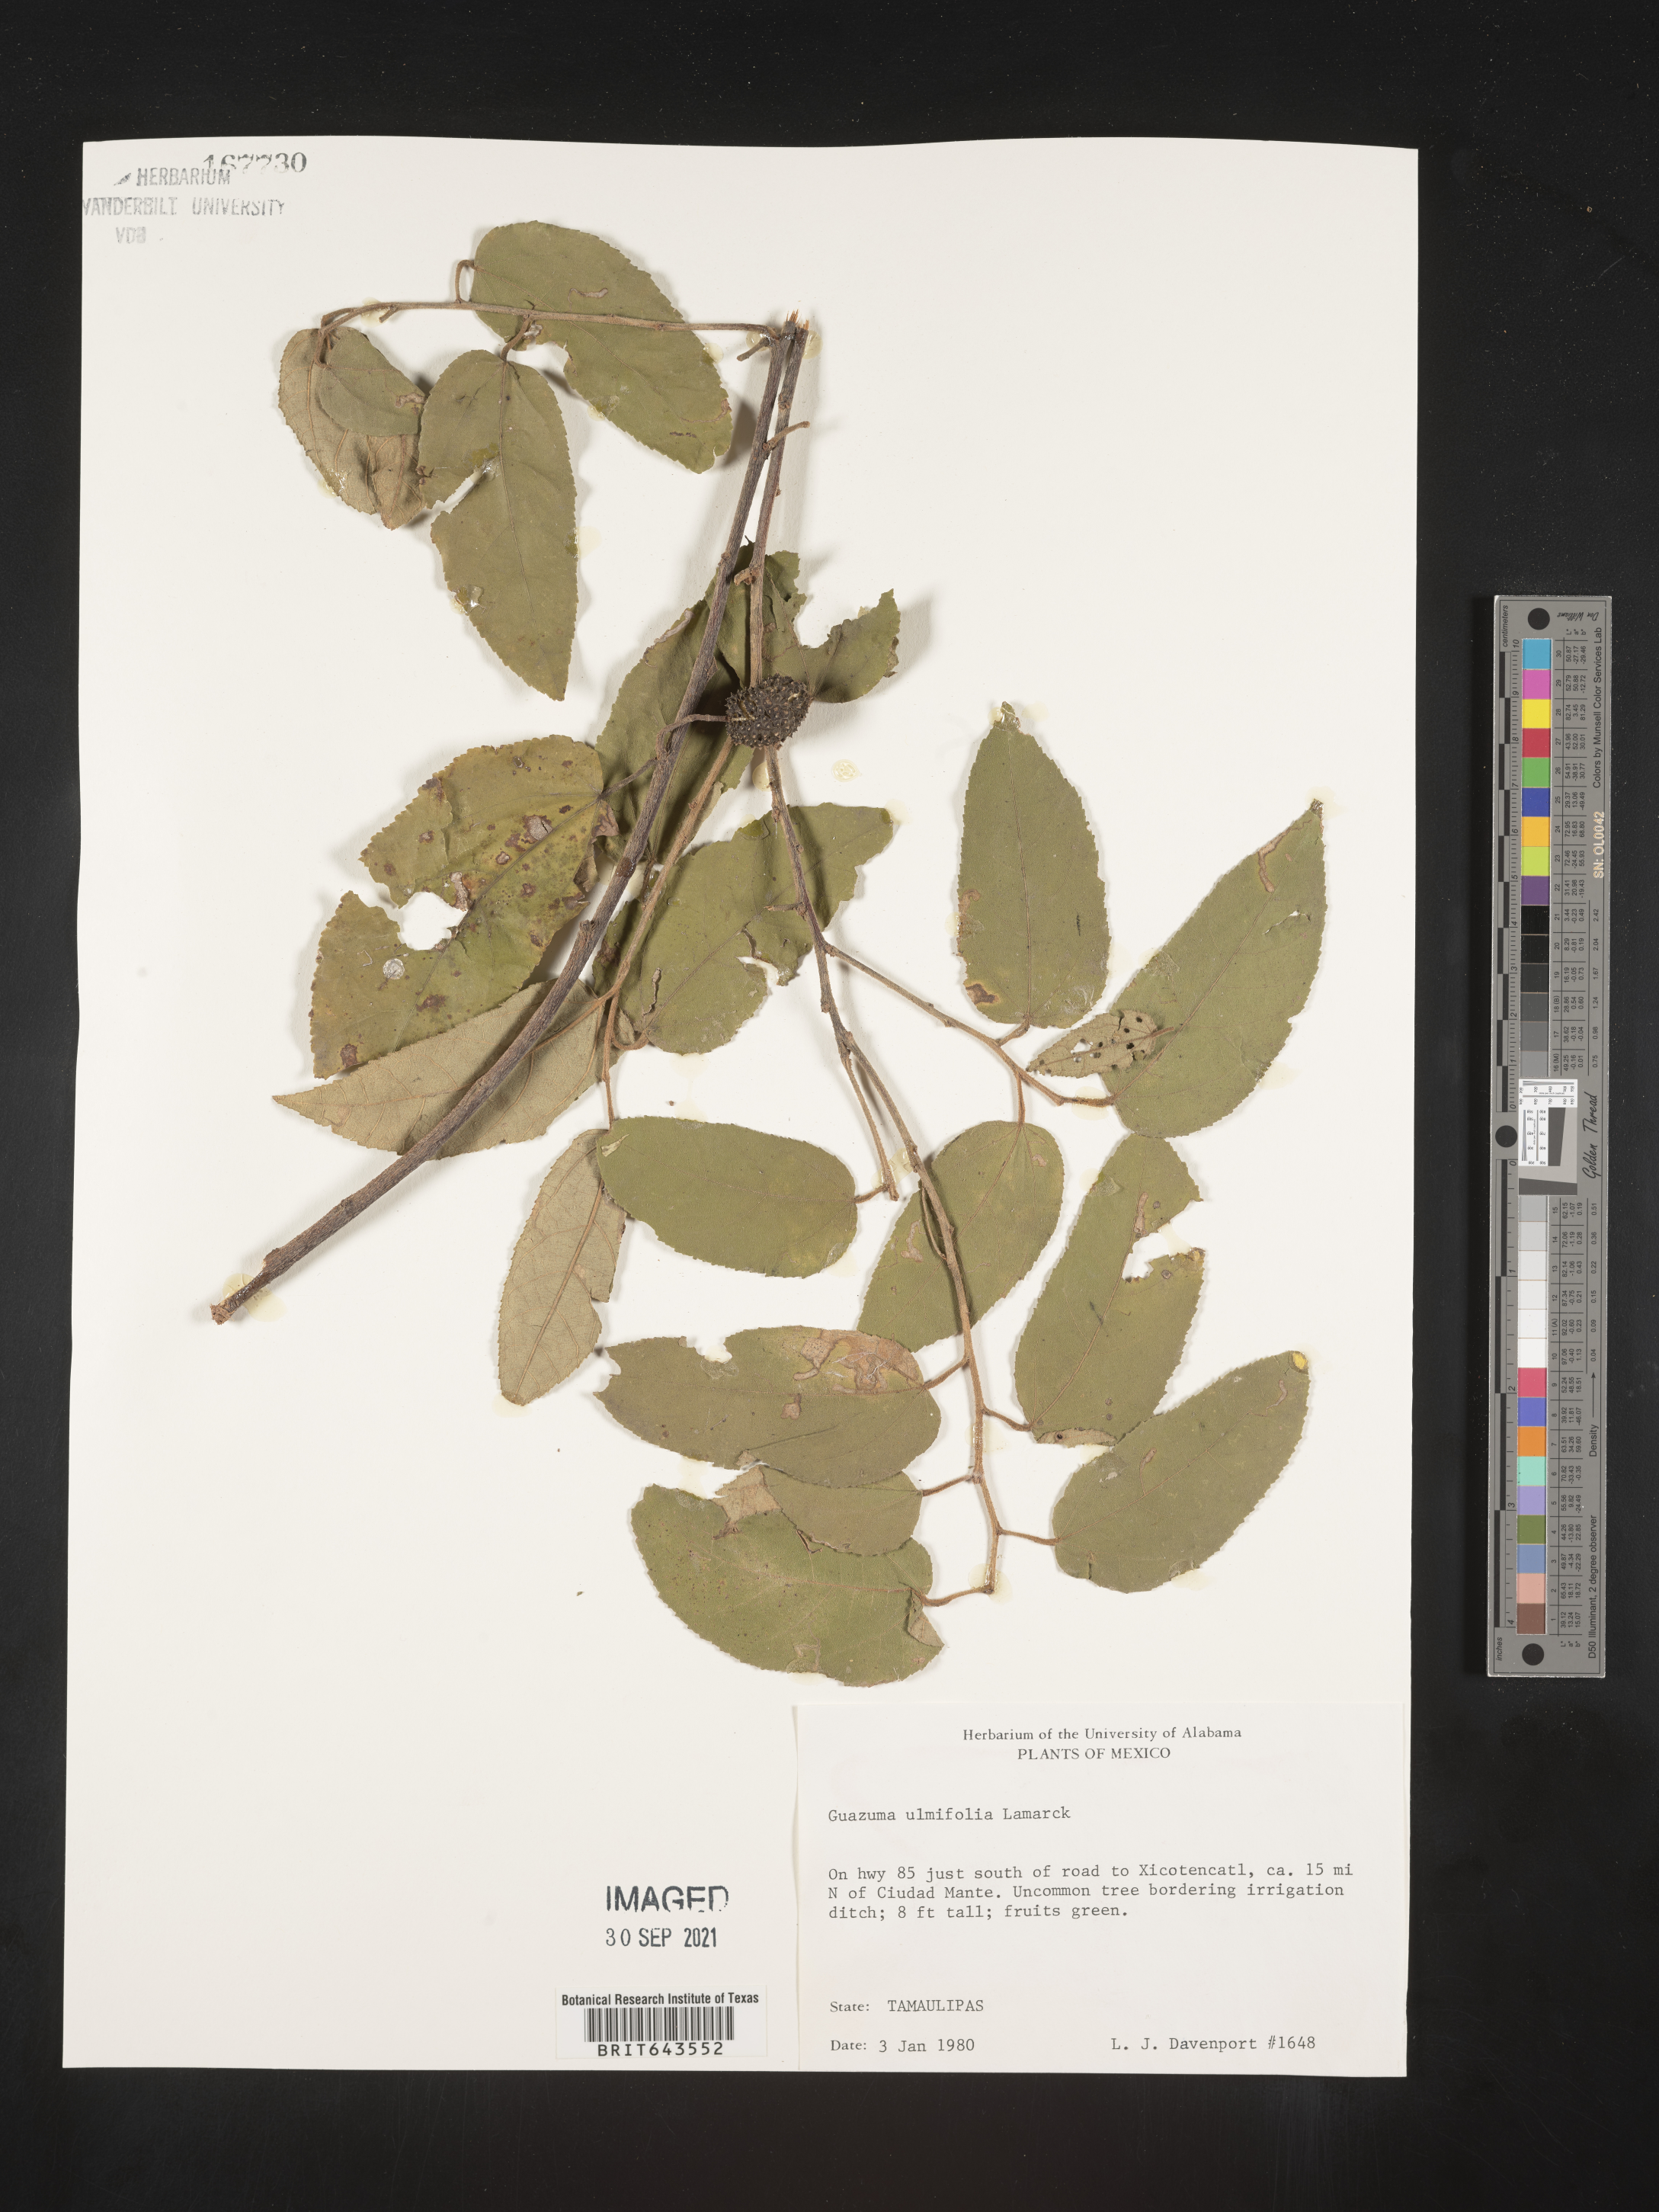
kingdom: Plantae
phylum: Tracheophyta
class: Magnoliopsida
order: Malvales
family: Malvaceae
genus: Guazuma
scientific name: Guazuma
